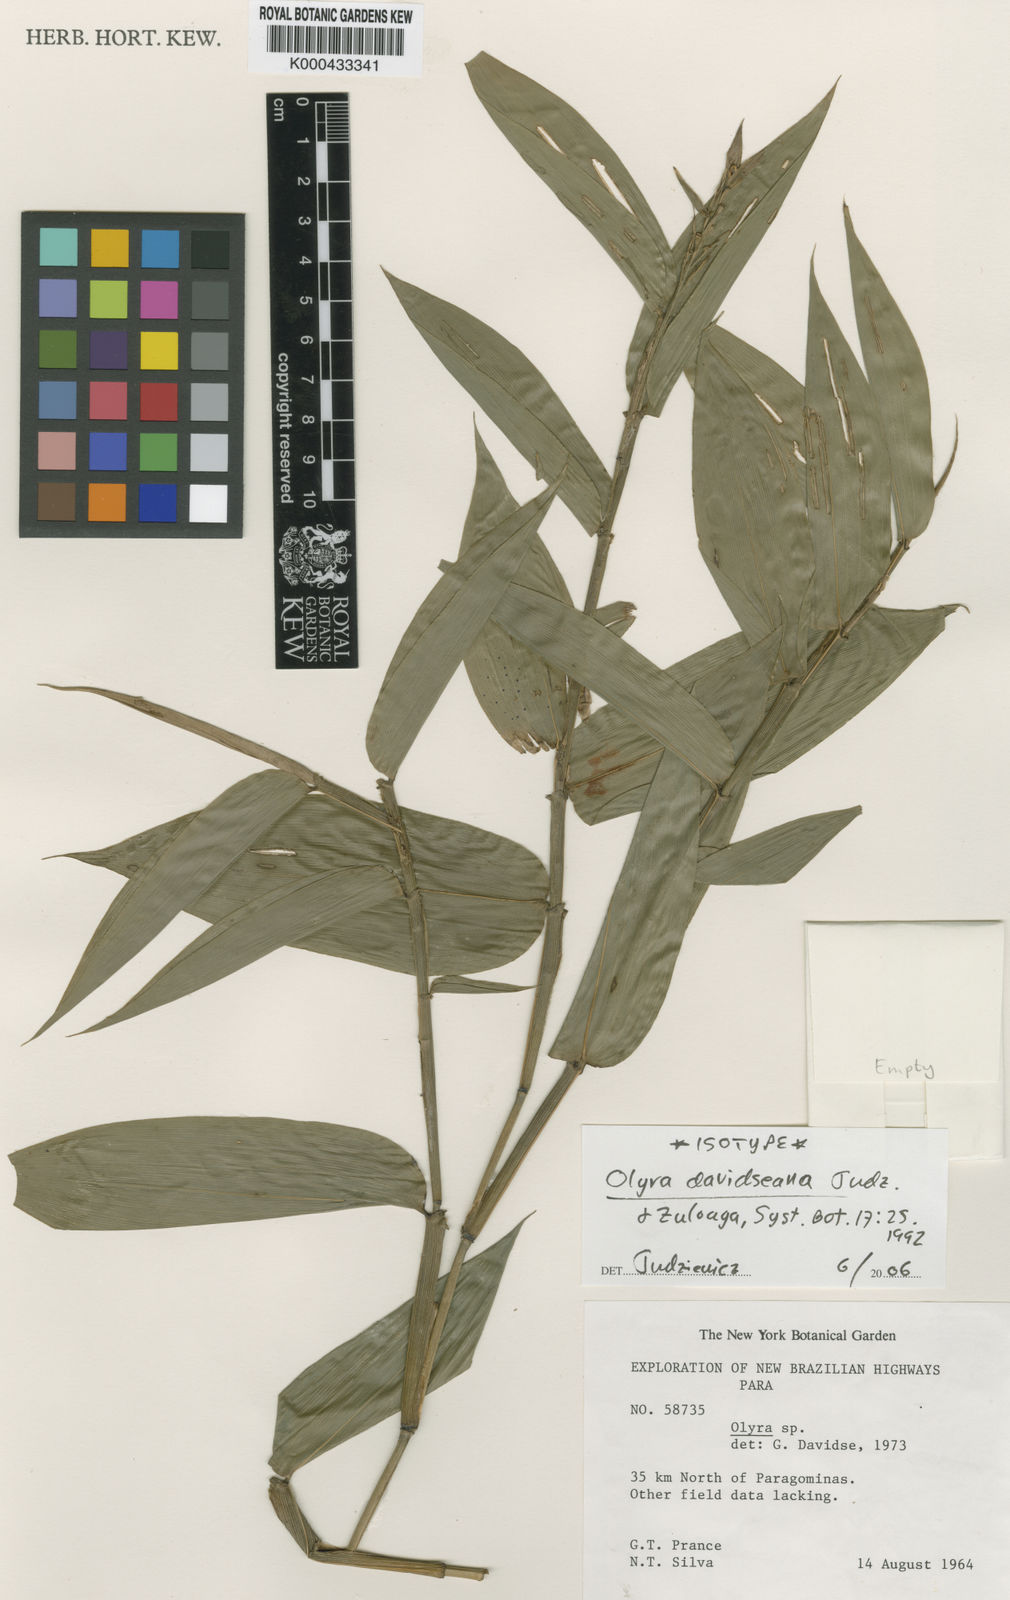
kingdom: Plantae
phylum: Tracheophyta
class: Liliopsida
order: Poales
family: Poaceae
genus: Olyra
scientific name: Olyra davidseana
